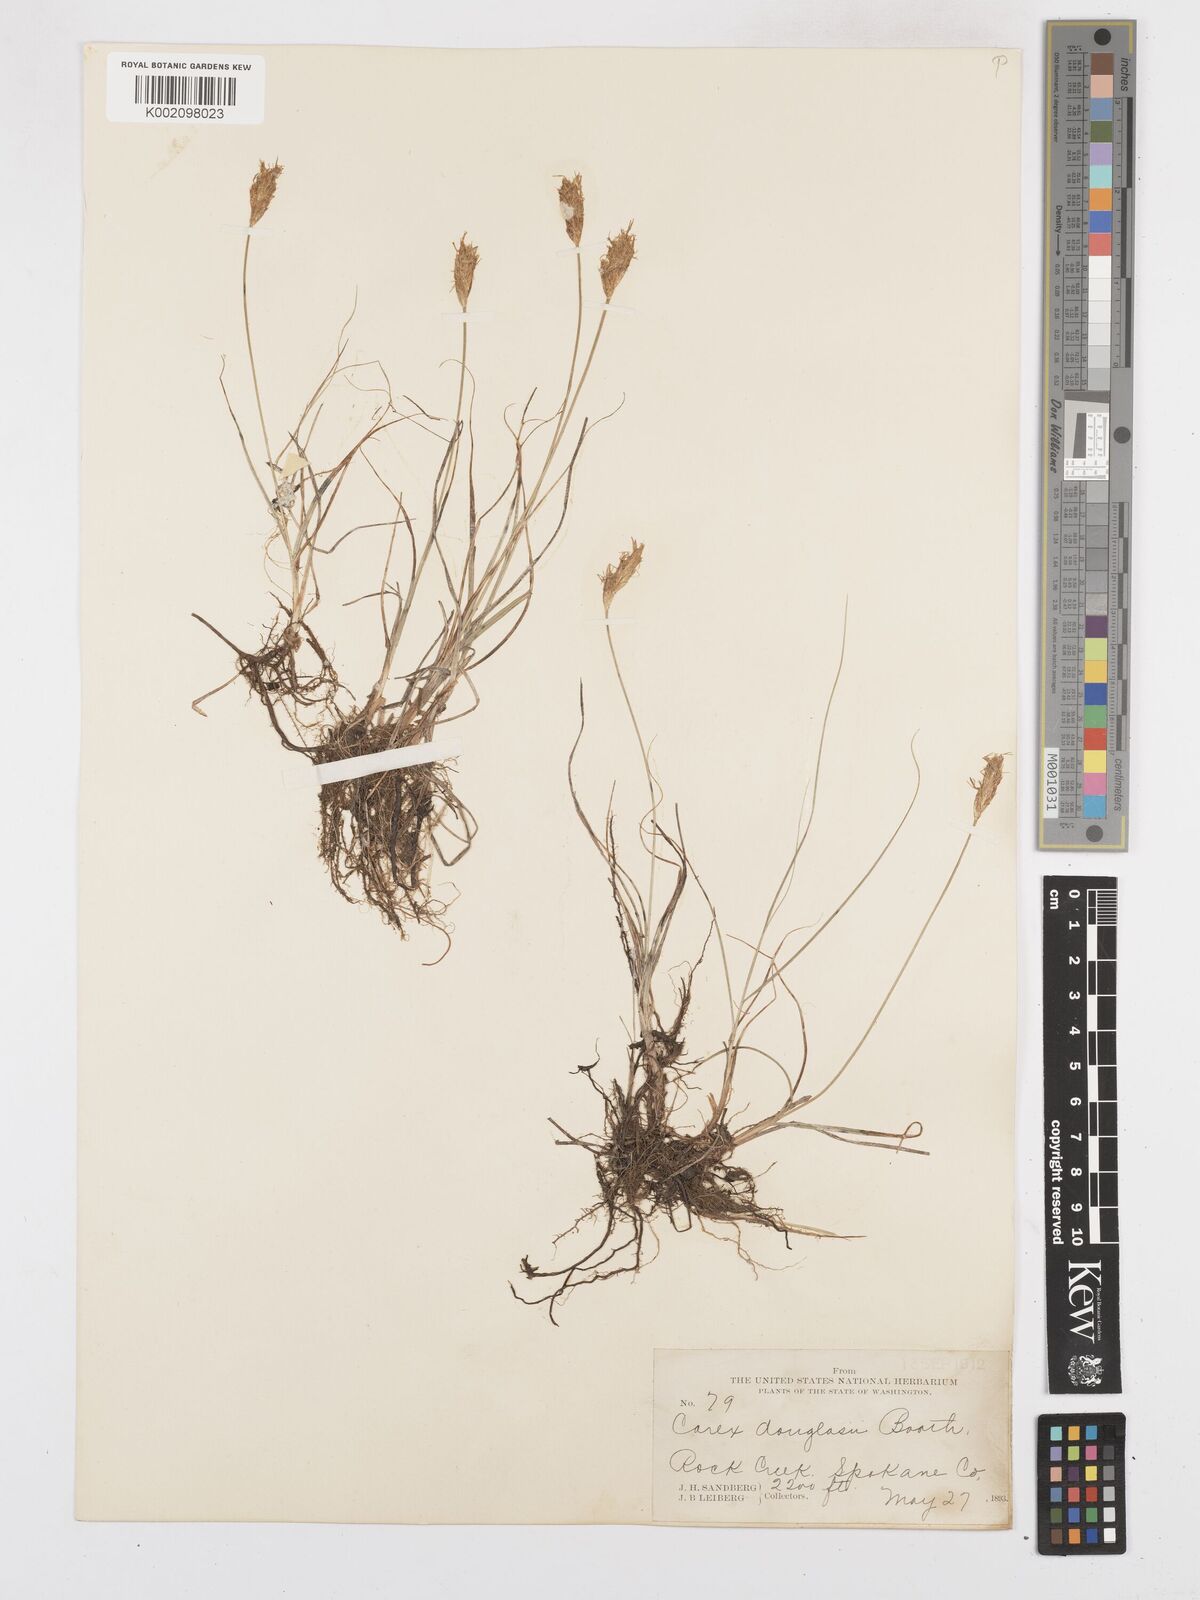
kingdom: Plantae
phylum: Tracheophyta
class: Liliopsida
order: Poales
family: Cyperaceae
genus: Carex
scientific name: Carex douglasii
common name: Douglas' sedge
